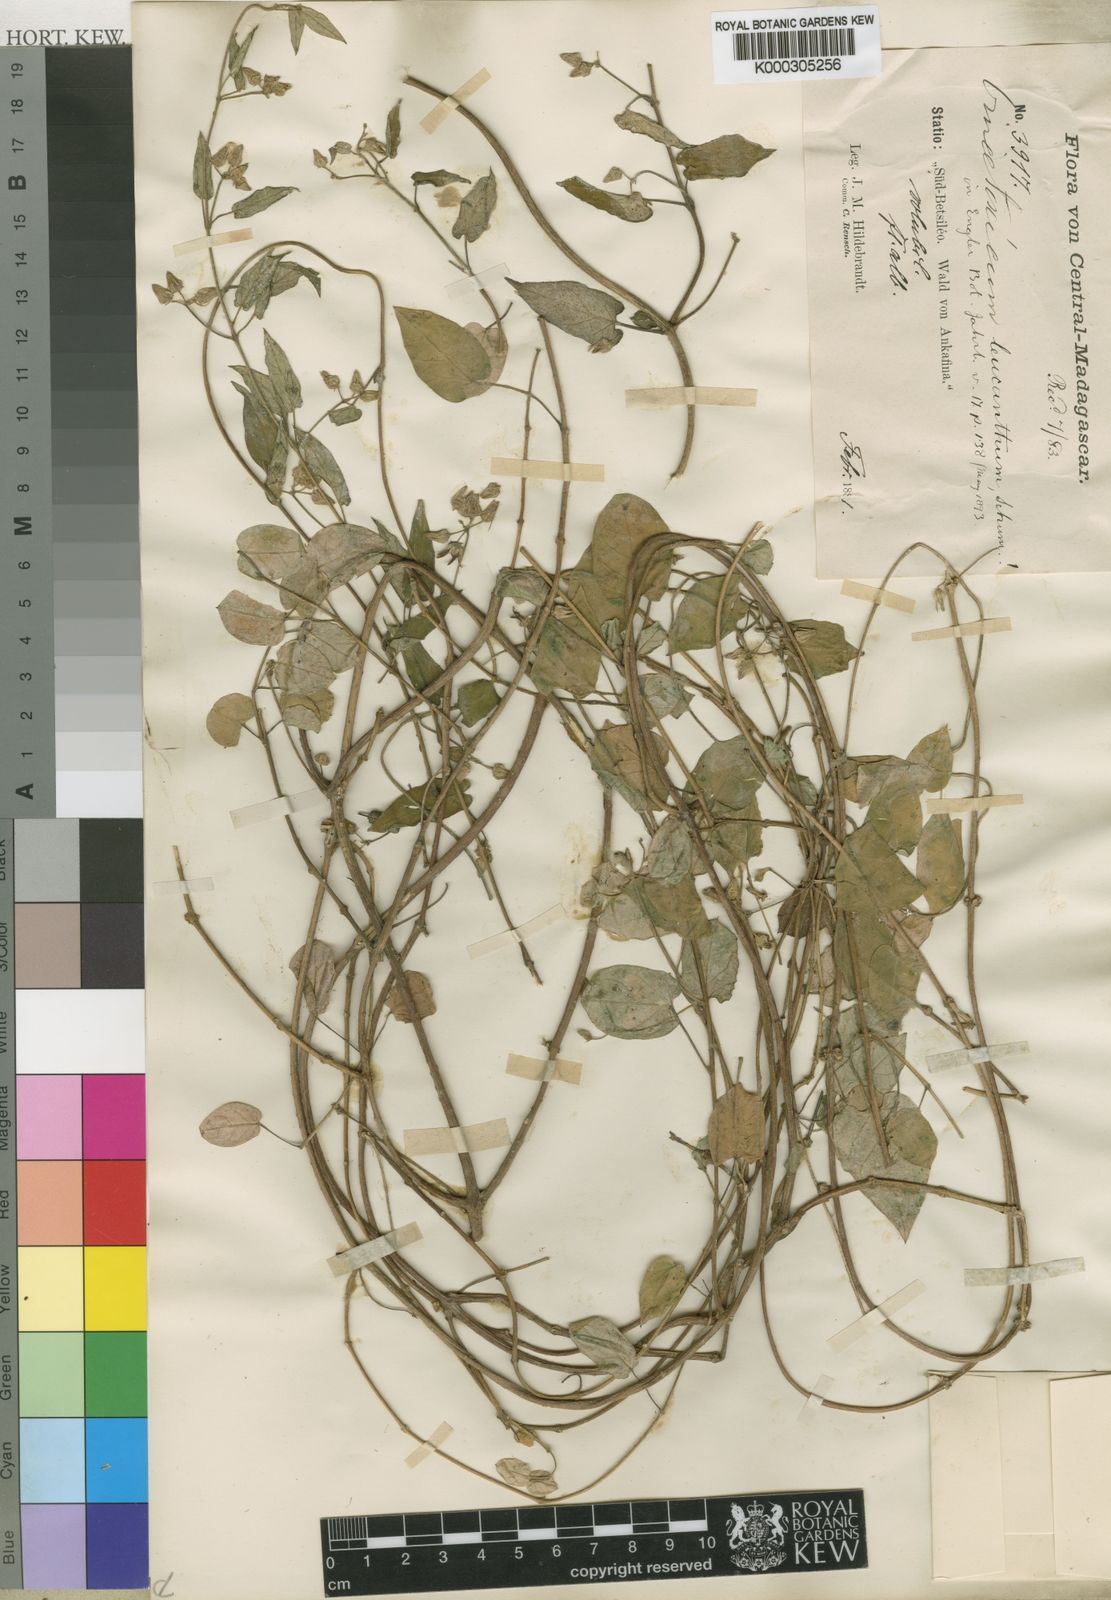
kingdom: Plantae
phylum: Tracheophyta
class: Magnoliopsida
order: Gentianales
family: Apocynaceae
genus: Cynanchum
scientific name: Cynanchum leucanthum
